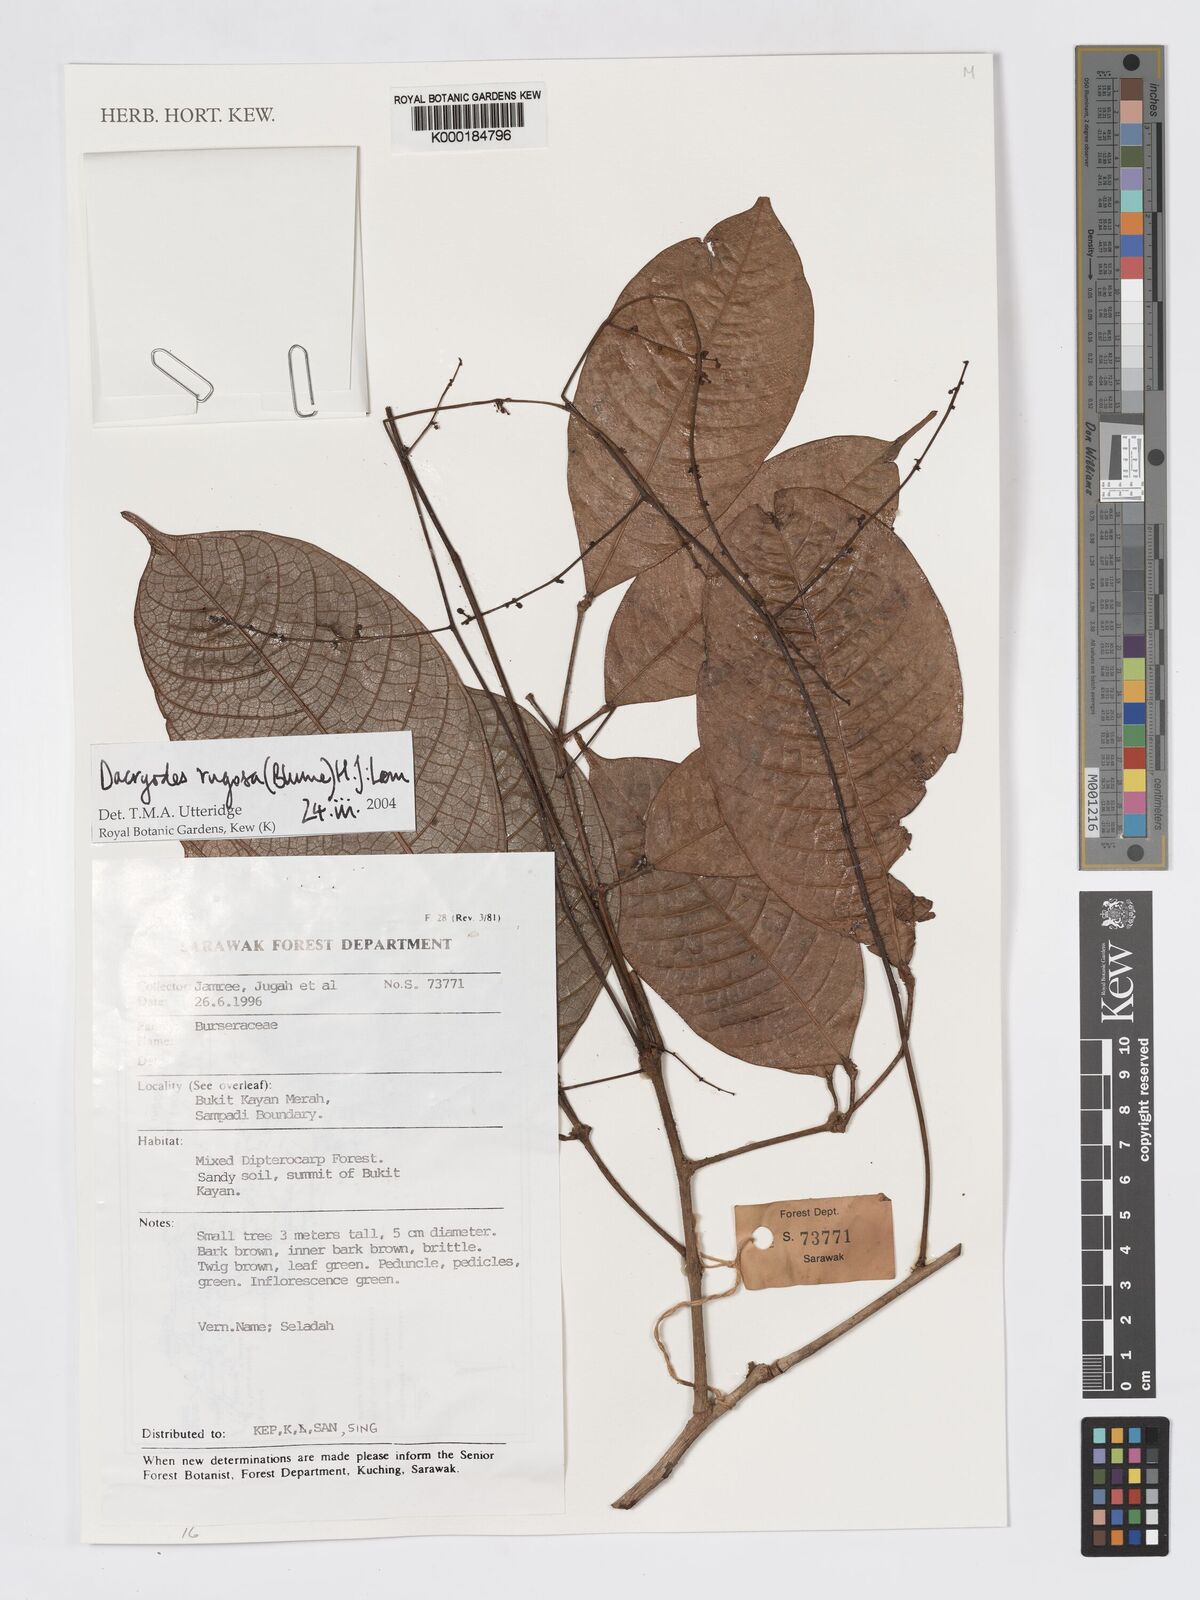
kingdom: Plantae
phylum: Tracheophyta
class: Magnoliopsida
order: Sapindales
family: Burseraceae
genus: Dacryodes
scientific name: Dacryodes rugosa
